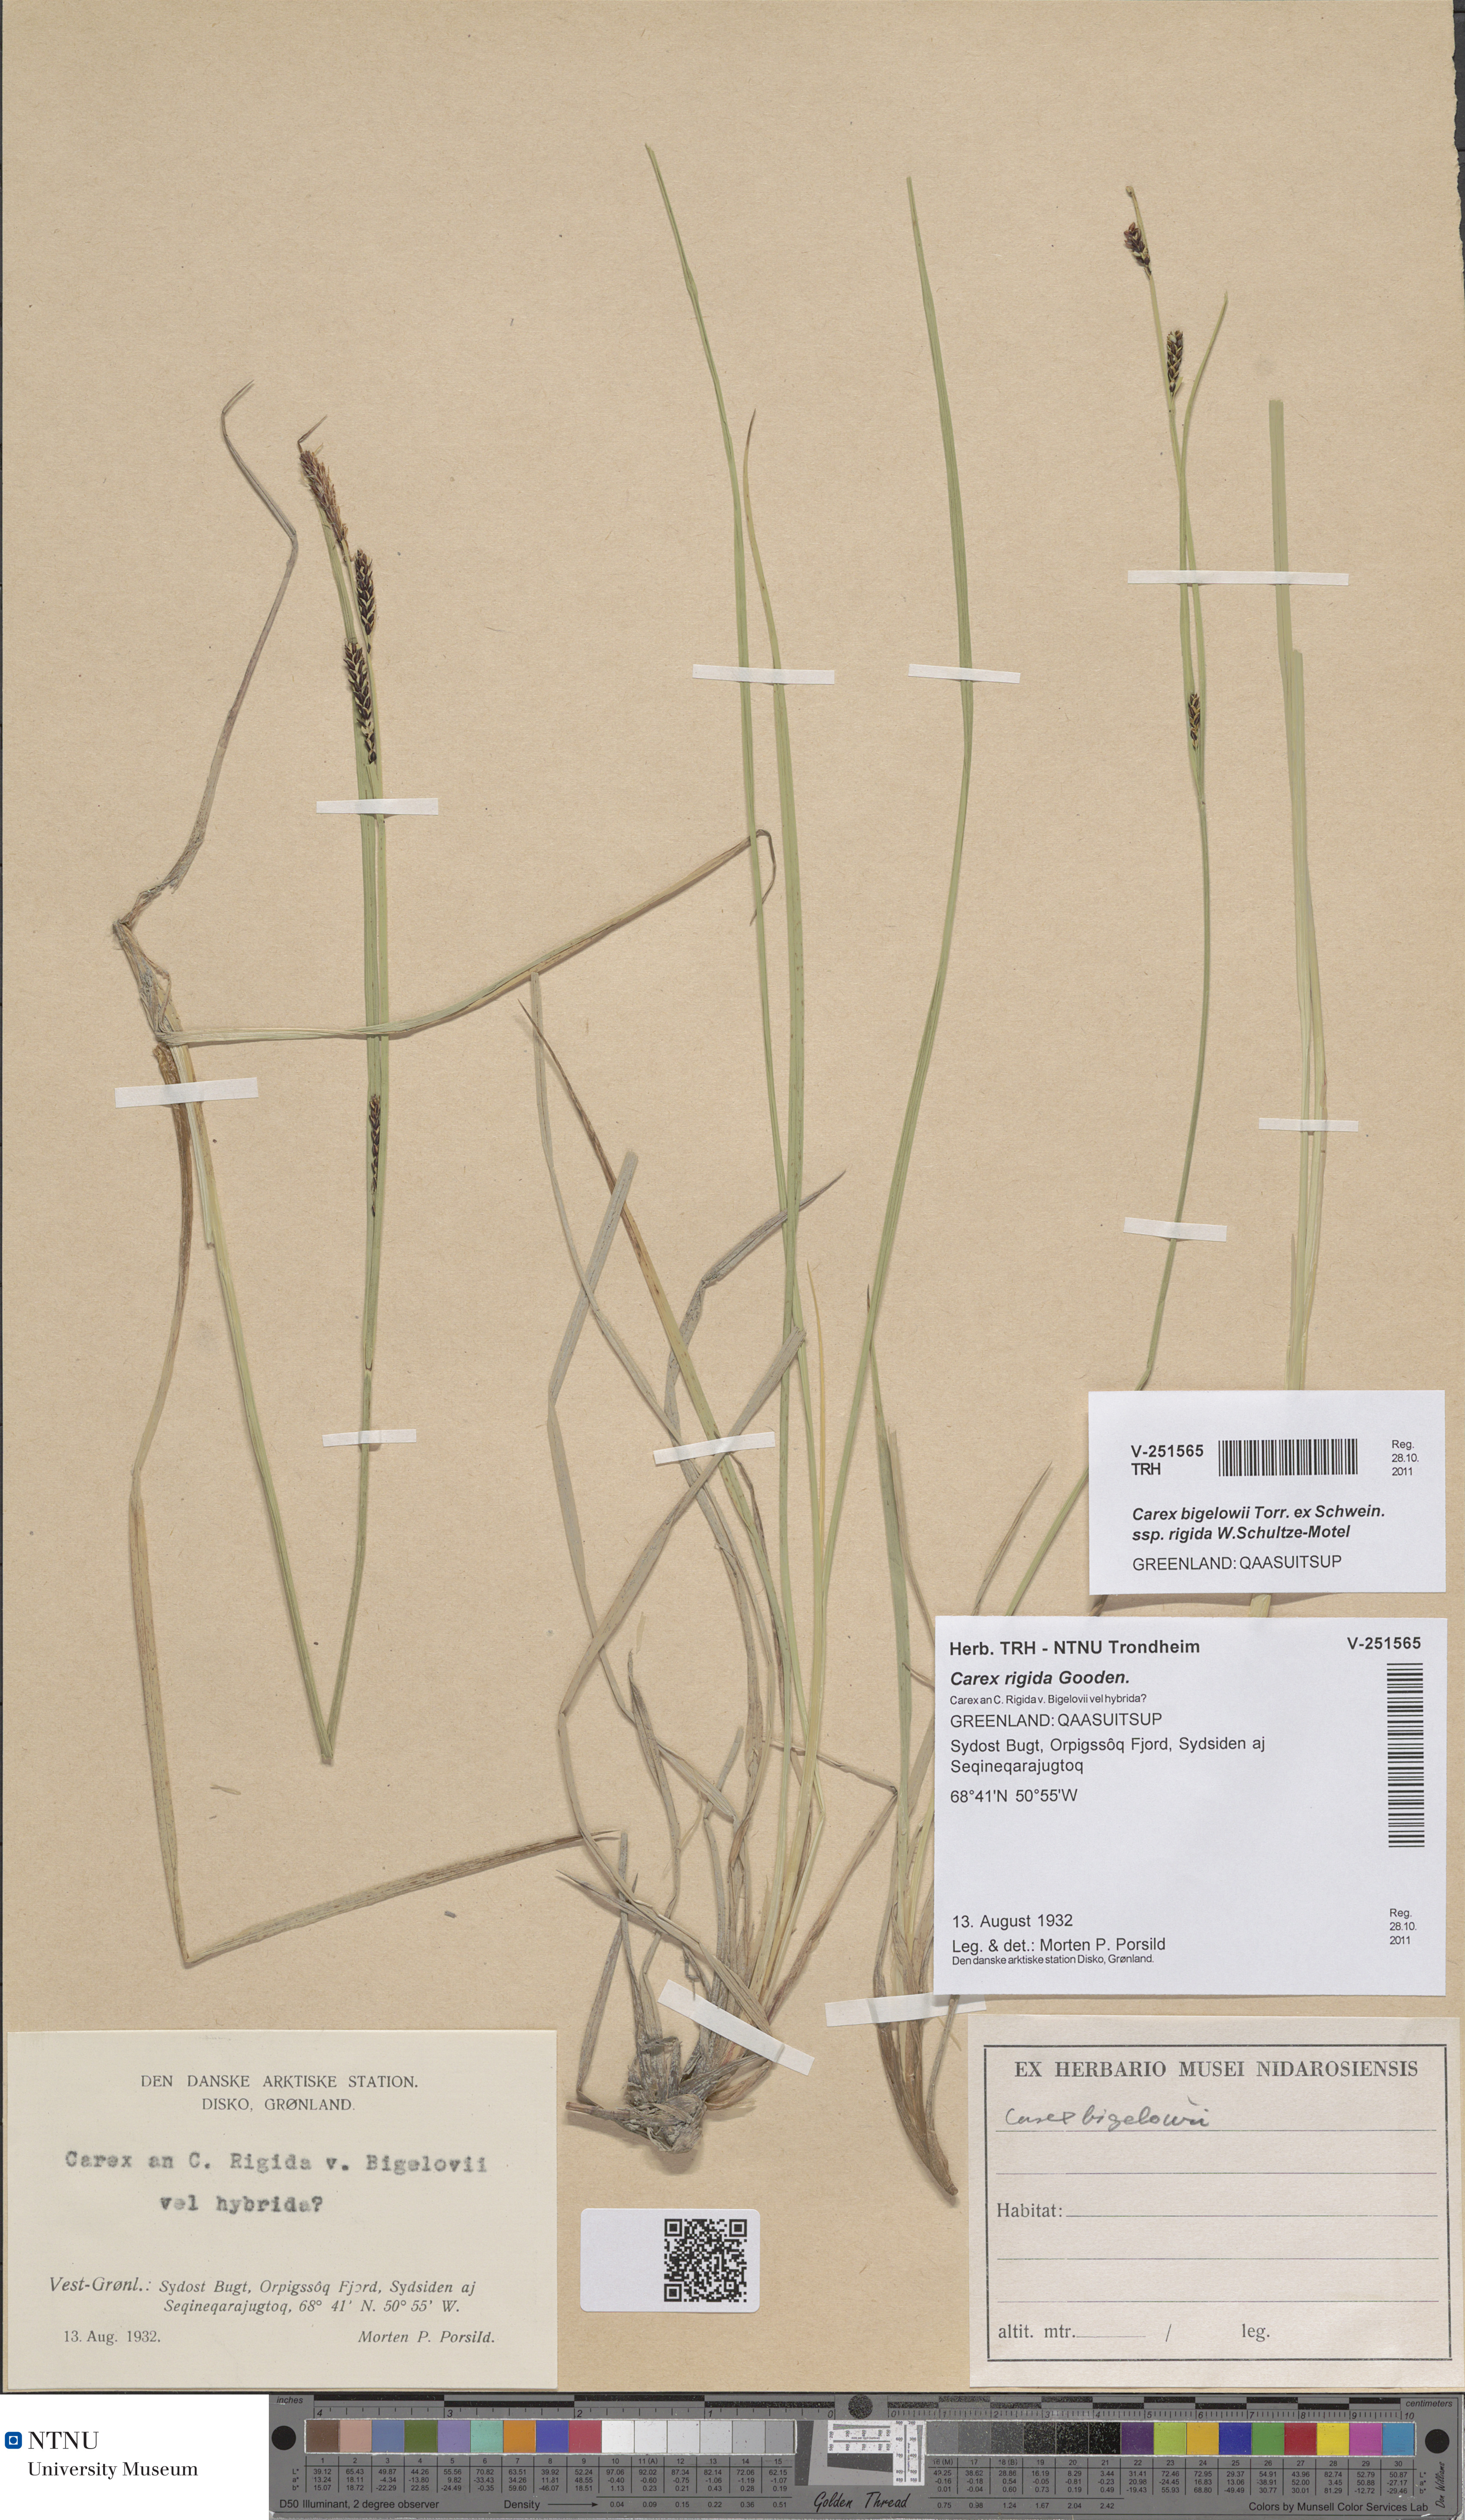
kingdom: Plantae
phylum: Tracheophyta
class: Liliopsida
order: Poales
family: Cyperaceae
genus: Carex
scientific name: Carex dacica
